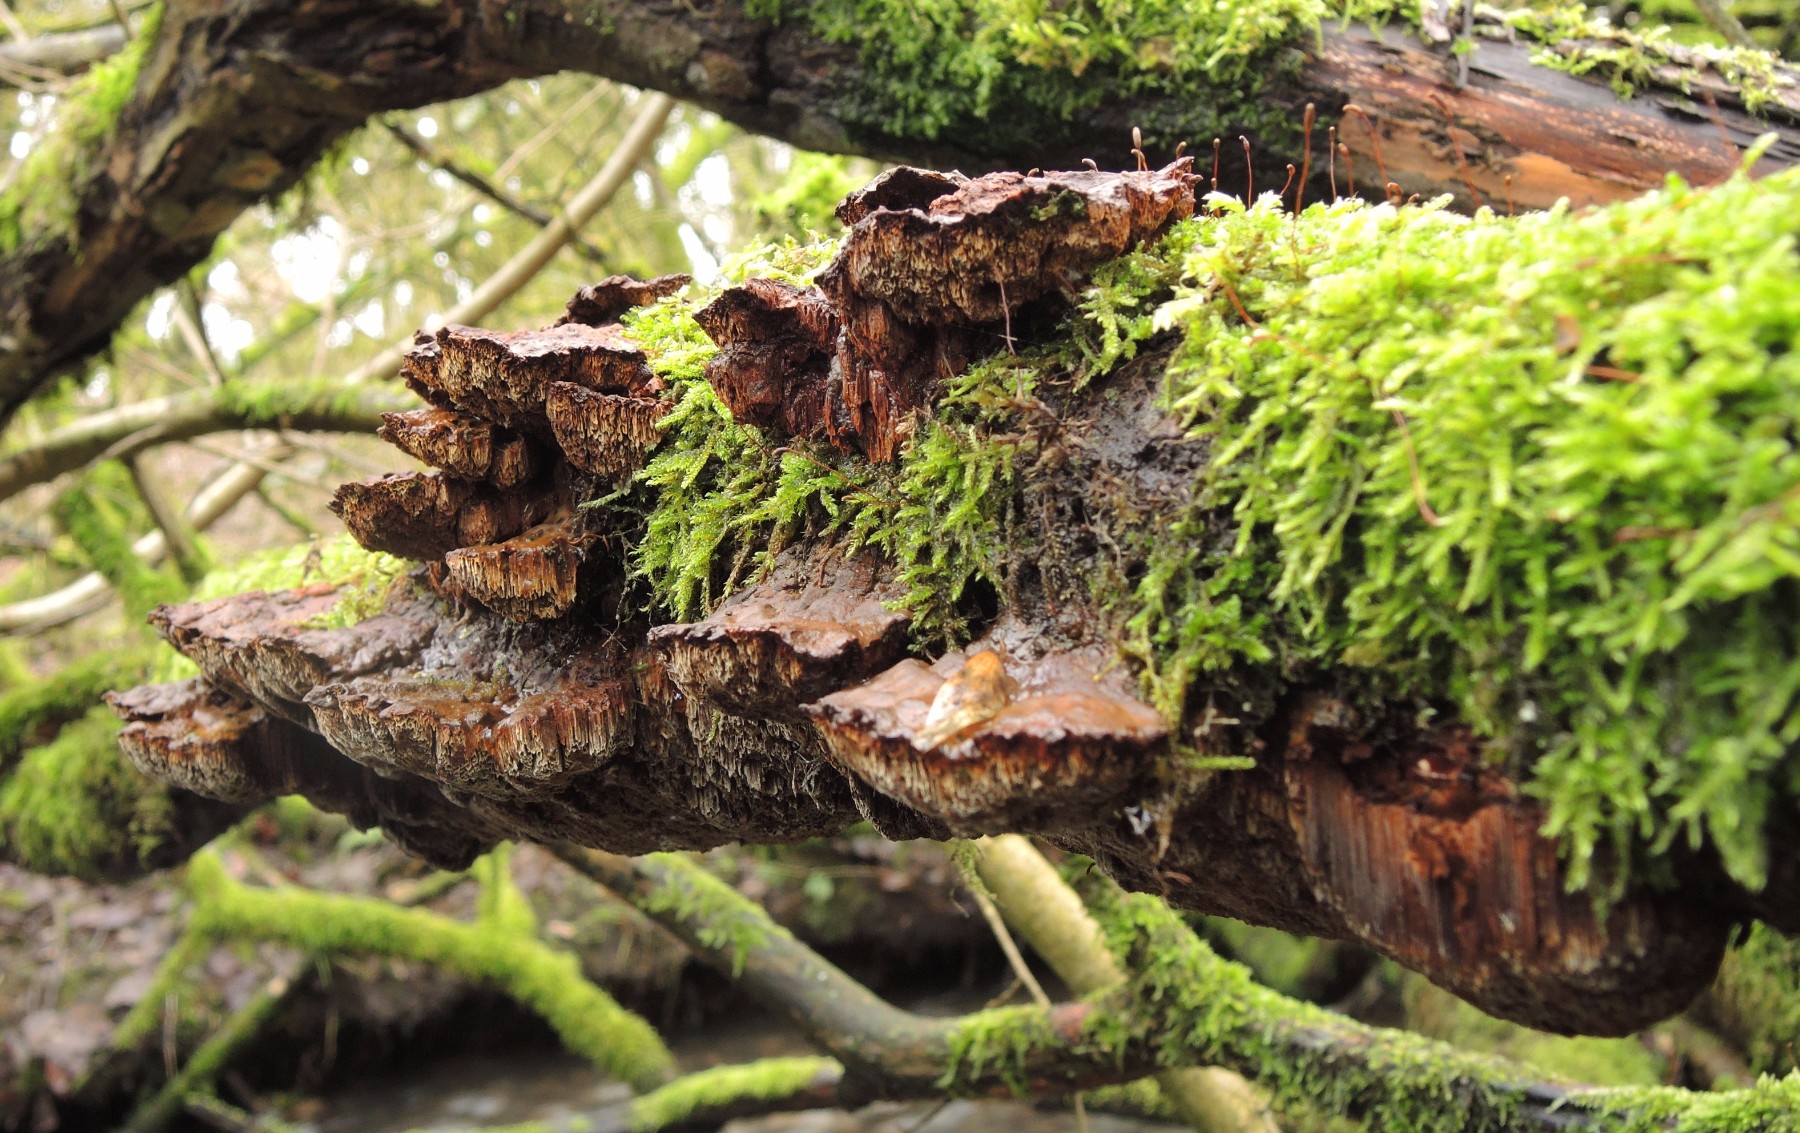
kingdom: Fungi
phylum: Basidiomycota
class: Agaricomycetes
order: Hymenochaetales
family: Hymenochaetaceae
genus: Xanthoporia
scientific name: Xanthoporia radiata
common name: elle-spejlporesvamp
